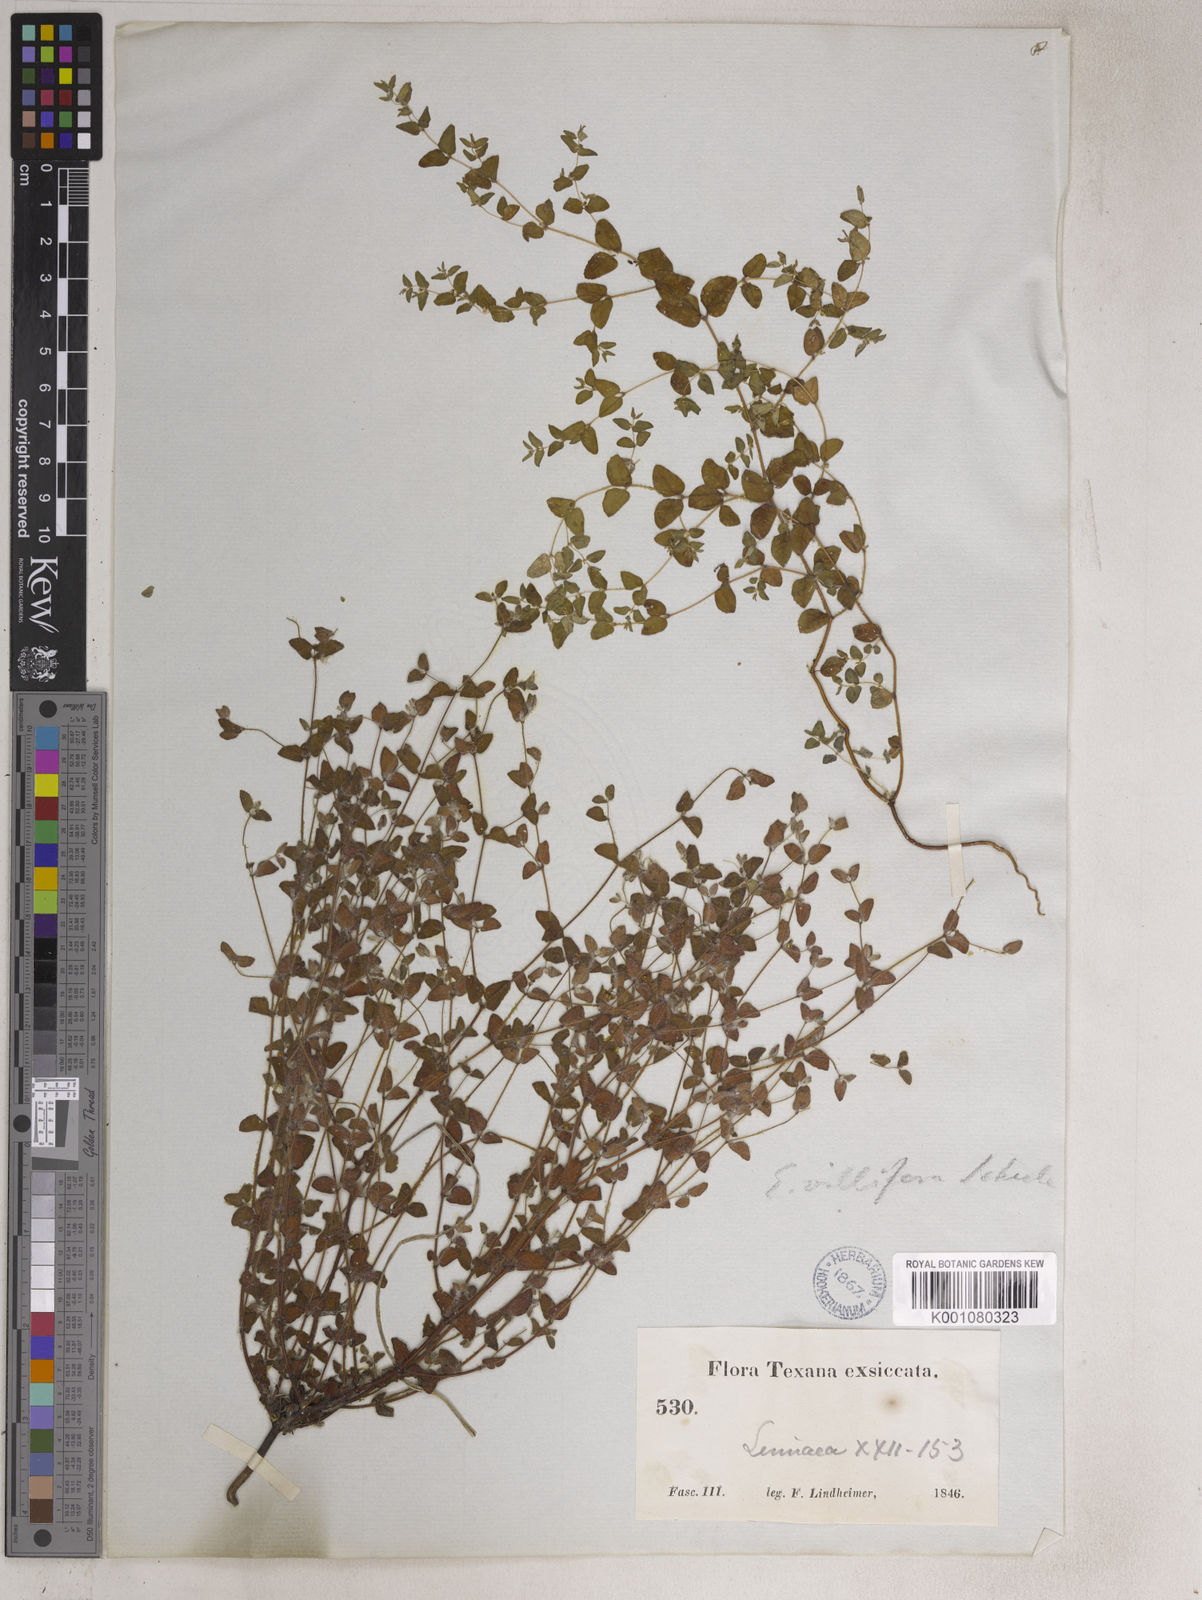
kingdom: Plantae
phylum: Tracheophyta
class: Magnoliopsida
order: Malpighiales
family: Euphorbiaceae
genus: Euphorbia
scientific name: Euphorbia villifera
